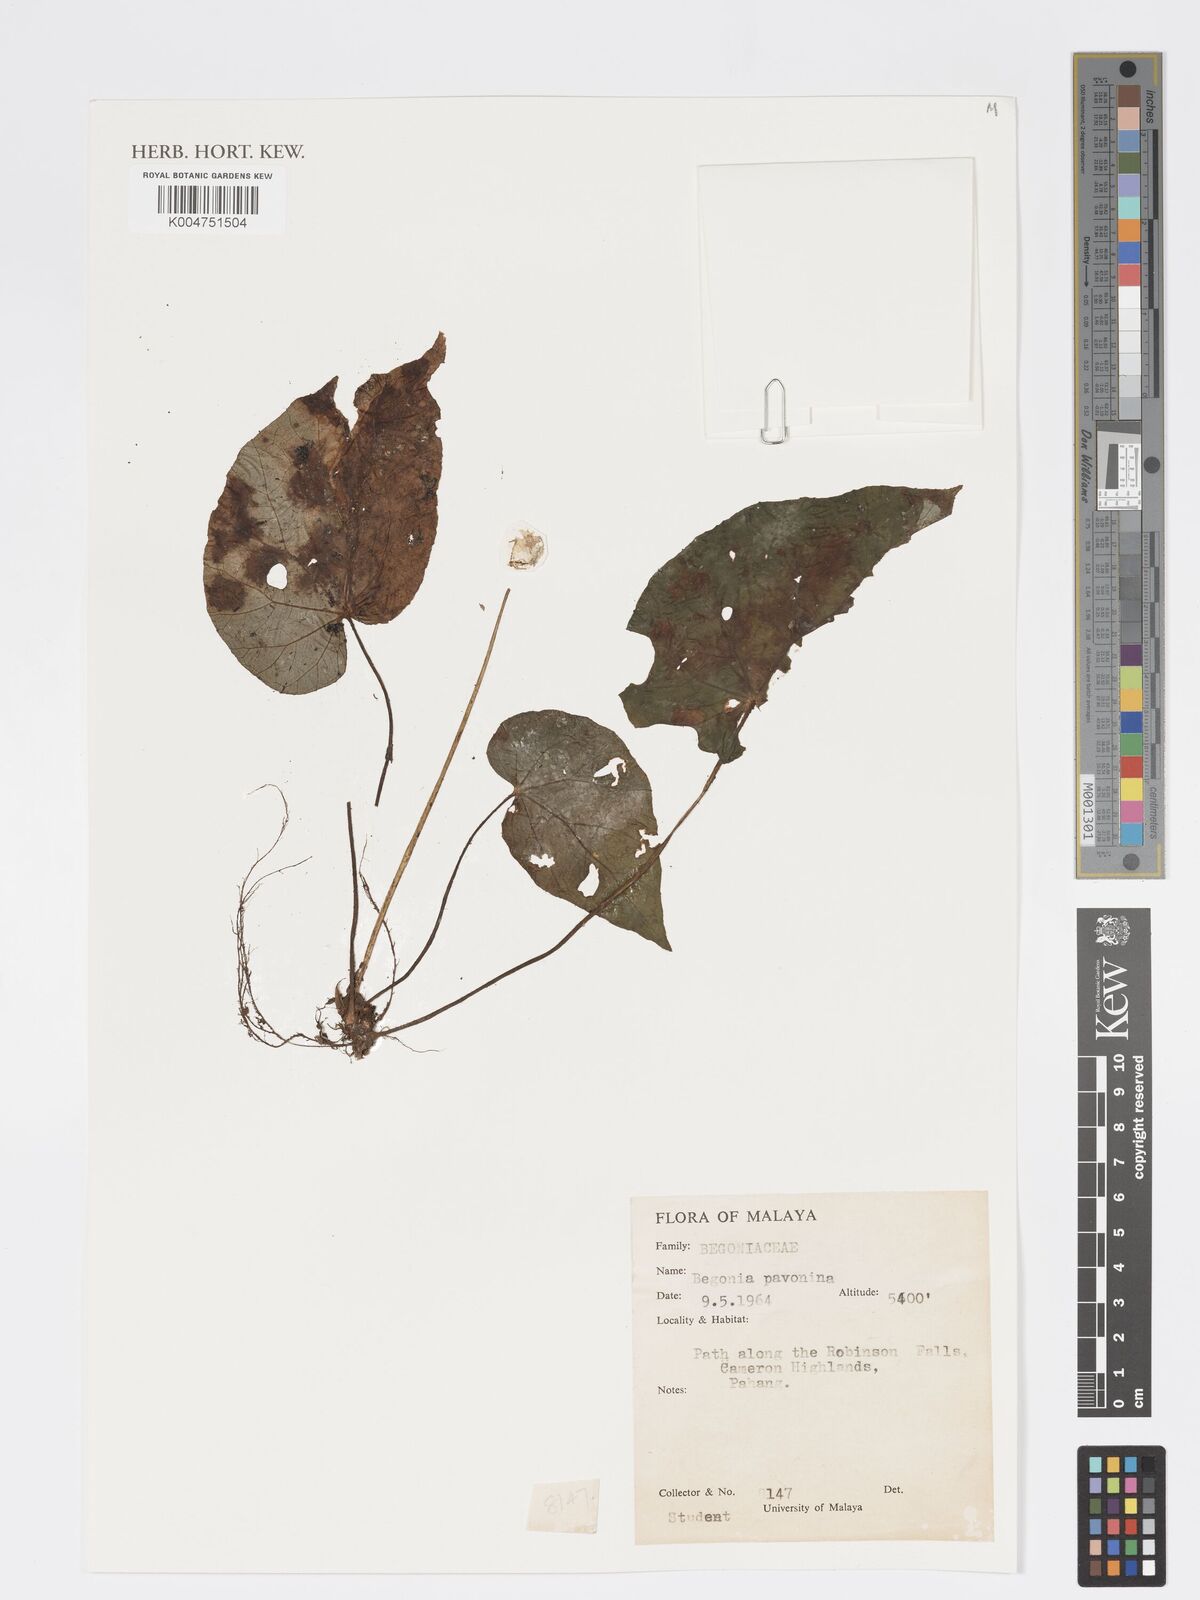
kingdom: Plantae
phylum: Tracheophyta
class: Magnoliopsida
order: Cucurbitales
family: Begoniaceae
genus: Begonia
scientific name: Begonia
